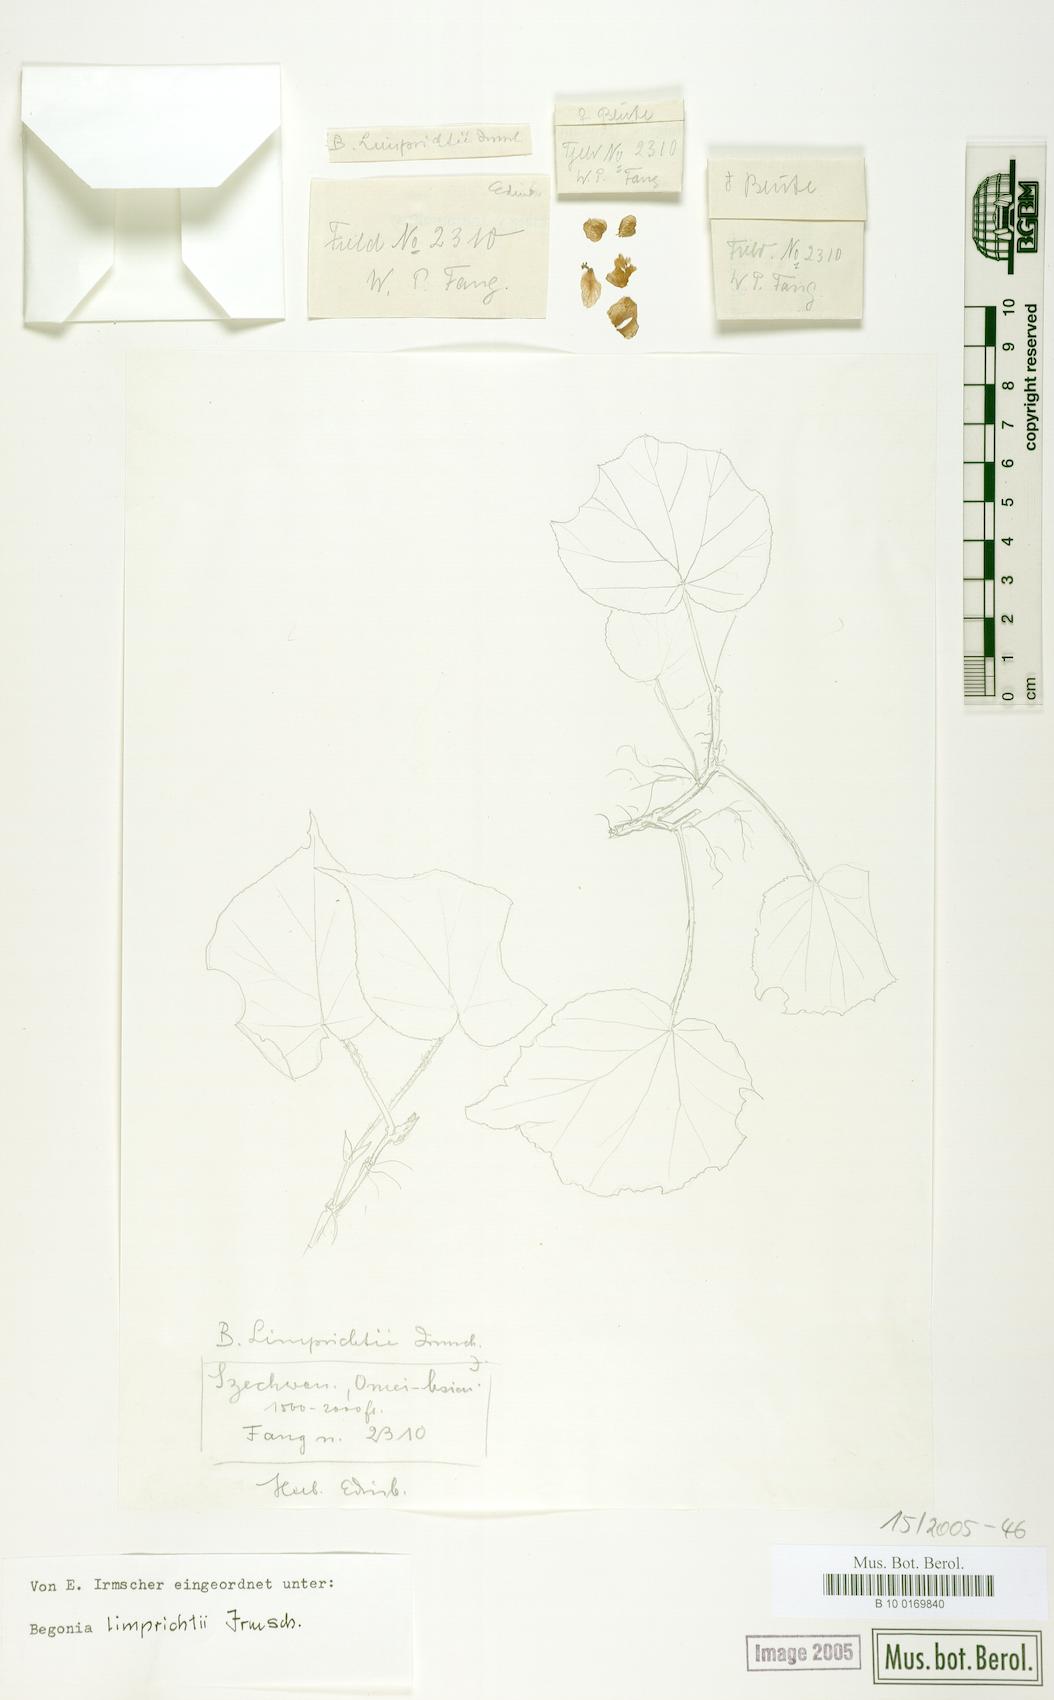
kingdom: Plantae
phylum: Tracheophyta
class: Magnoliopsida
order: Cucurbitales
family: Begoniaceae
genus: Begonia
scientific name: Begonia limprichtii
